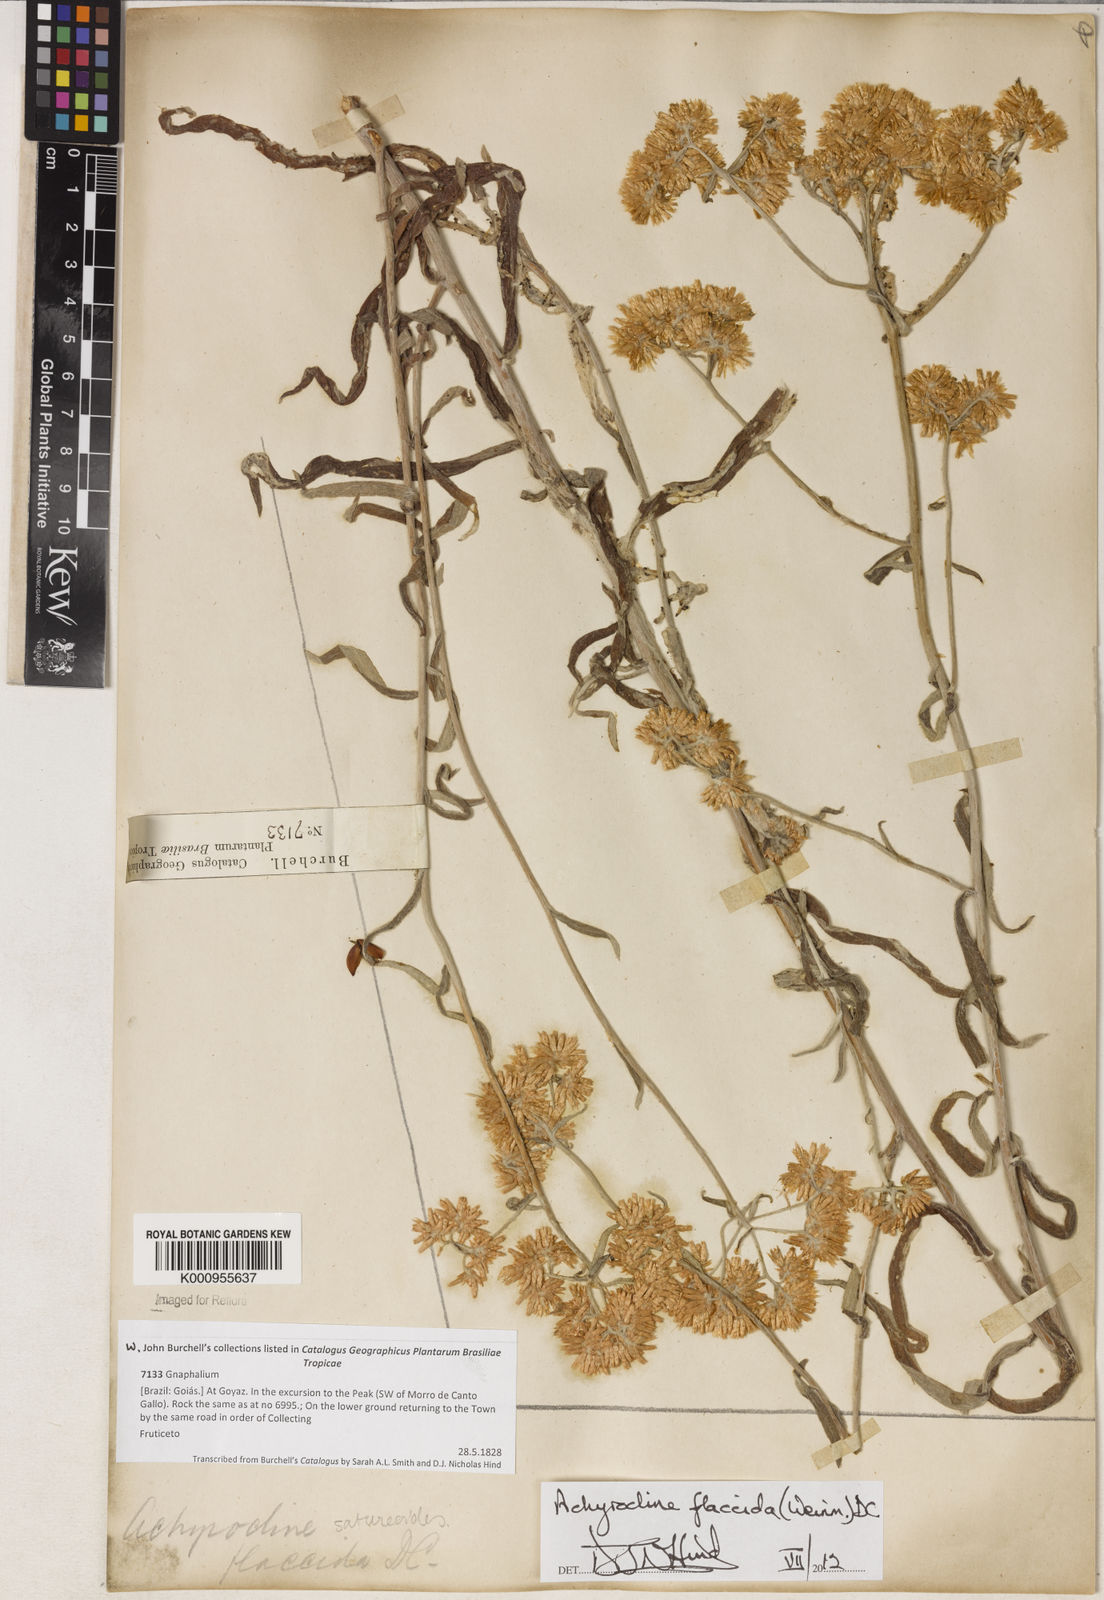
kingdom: Plantae
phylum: Tracheophyta
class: Magnoliopsida
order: Asterales
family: Asteraceae
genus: Achyrocline
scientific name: Achyrocline flaccida
